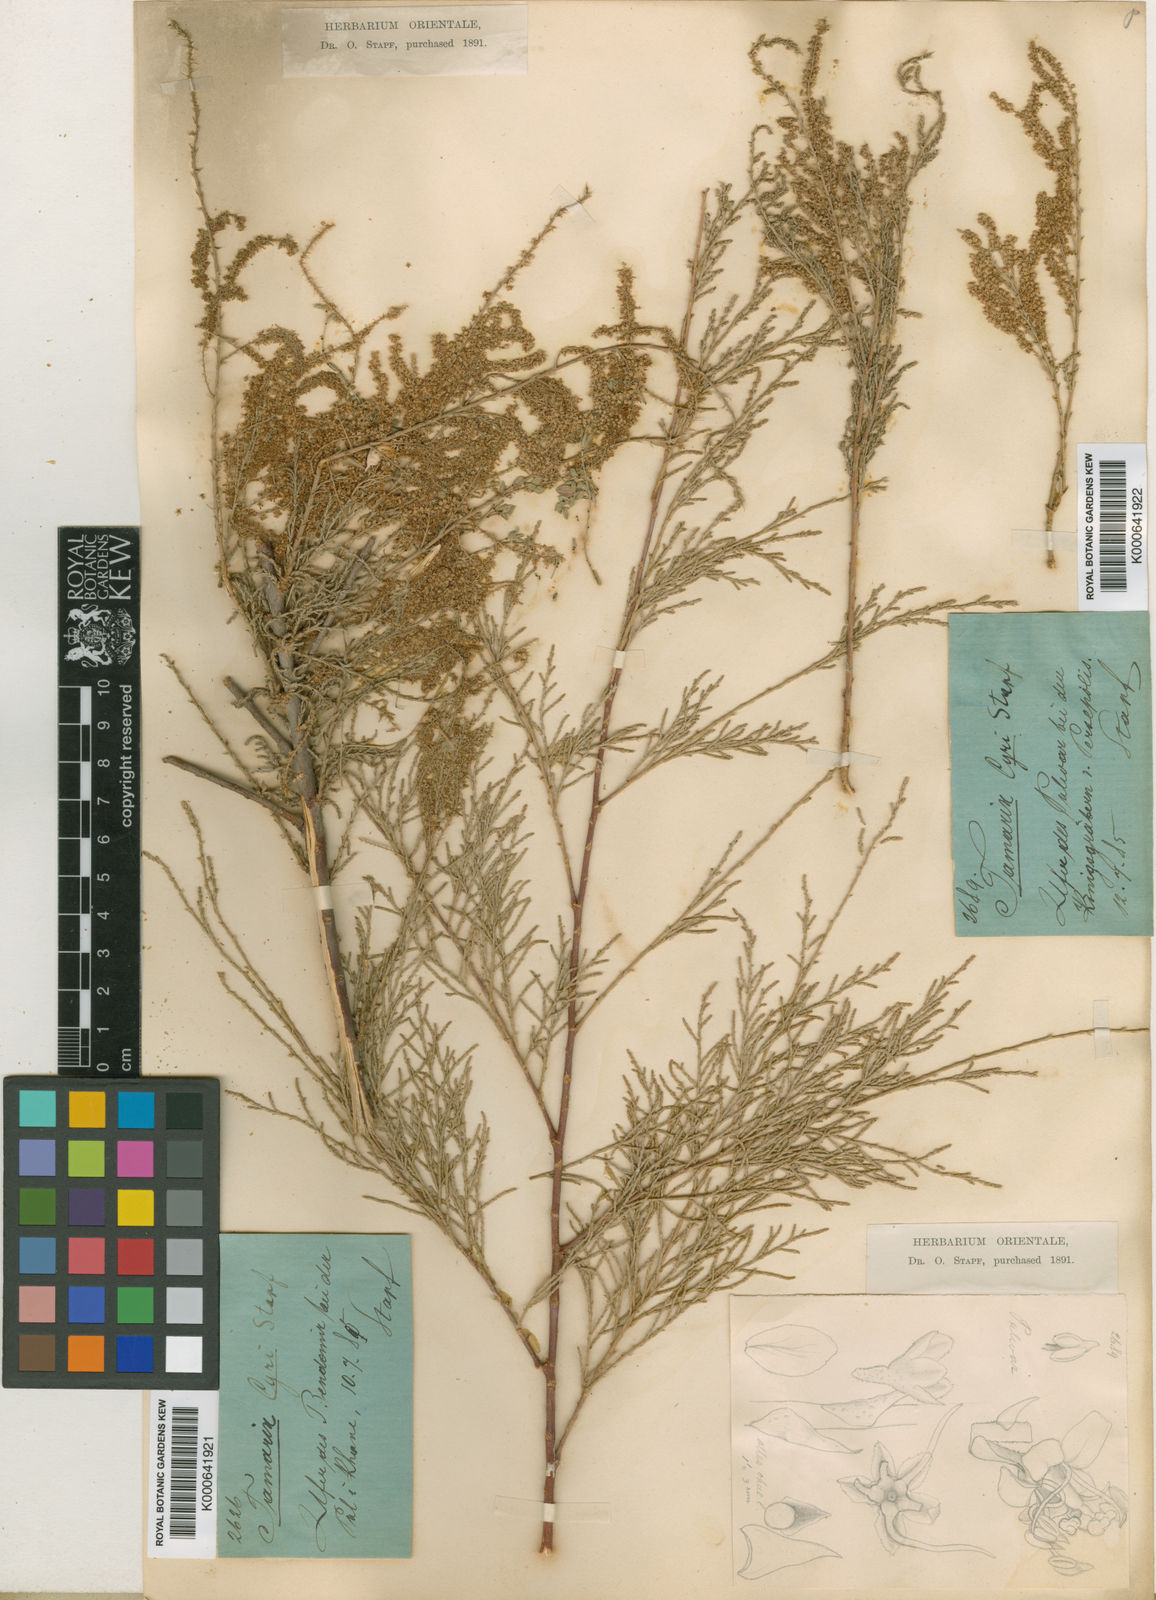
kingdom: Plantae
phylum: Tracheophyta
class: Magnoliopsida
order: Caryophyllales
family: Tamaricaceae
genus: Tamarix
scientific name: Tamarix
